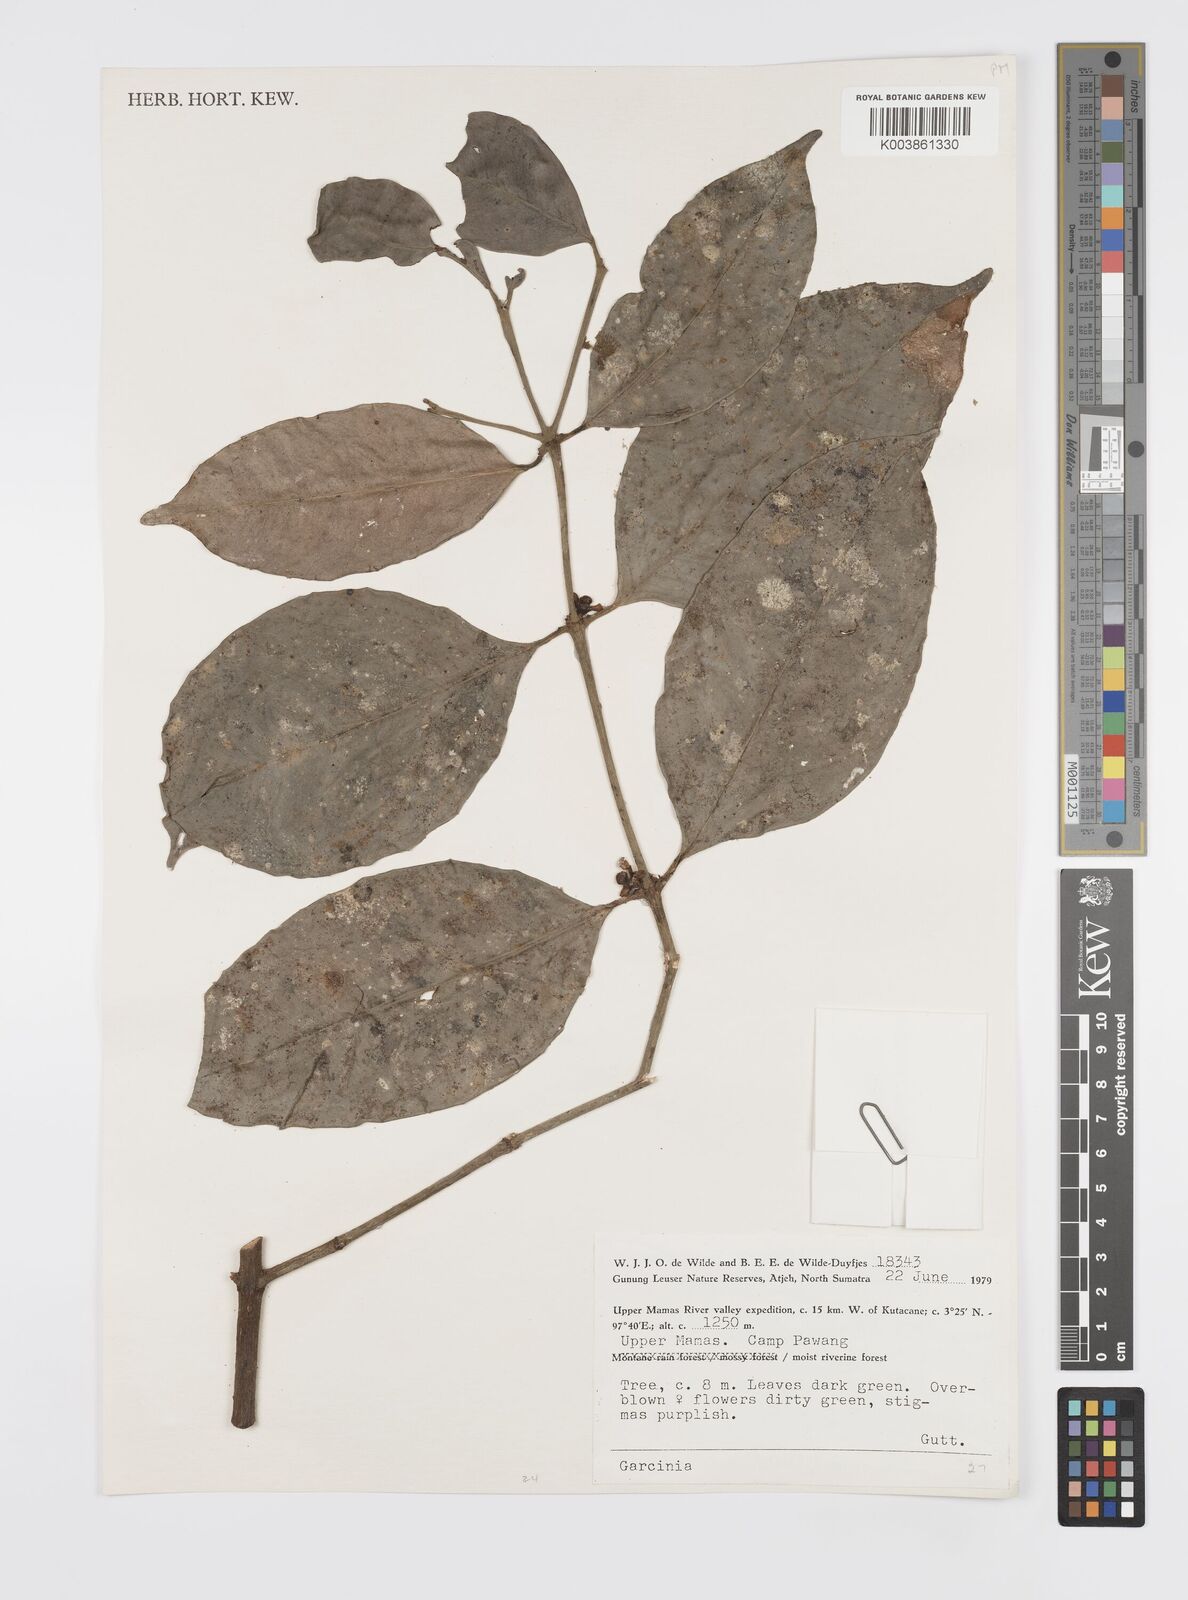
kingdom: Plantae
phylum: Tracheophyta
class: Magnoliopsida
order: Malpighiales
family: Clusiaceae
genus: Garcinia
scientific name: Garcinia
